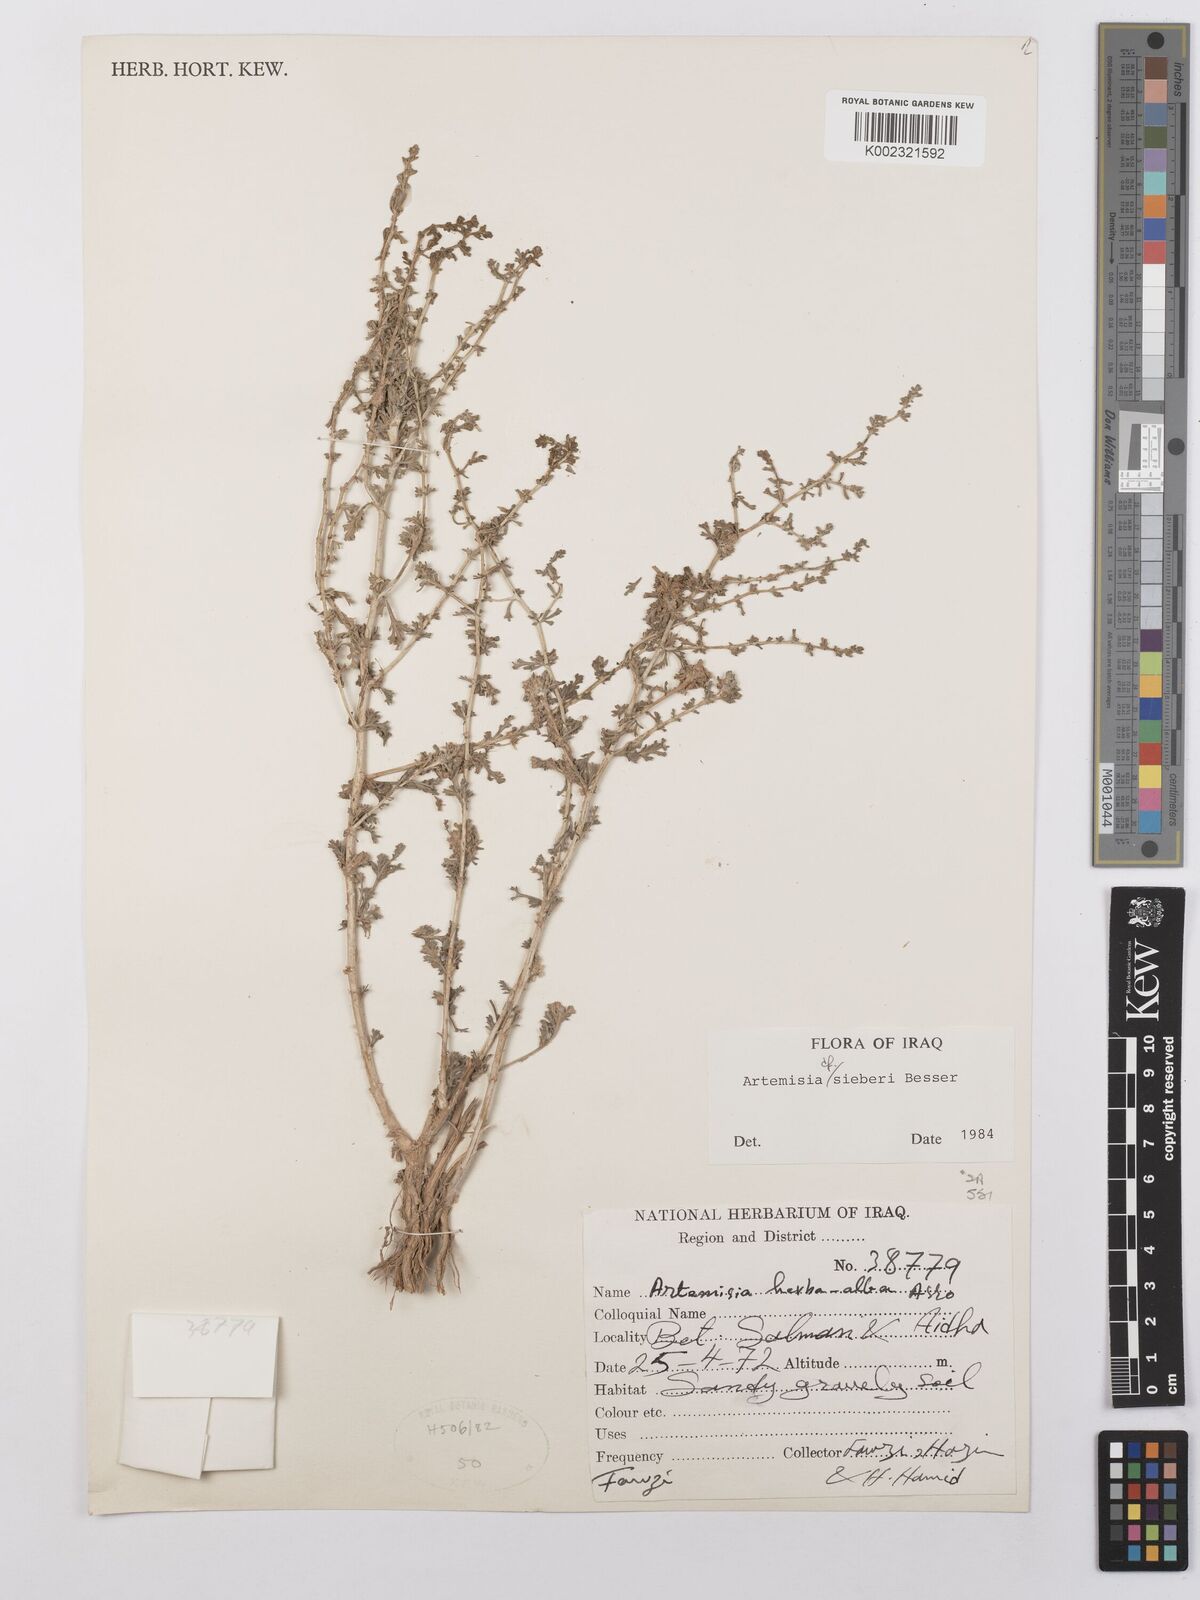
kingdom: Plantae
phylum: Tracheophyta
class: Magnoliopsida
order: Asterales
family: Asteraceae
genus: Artemisia
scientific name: Artemisia sieberi
